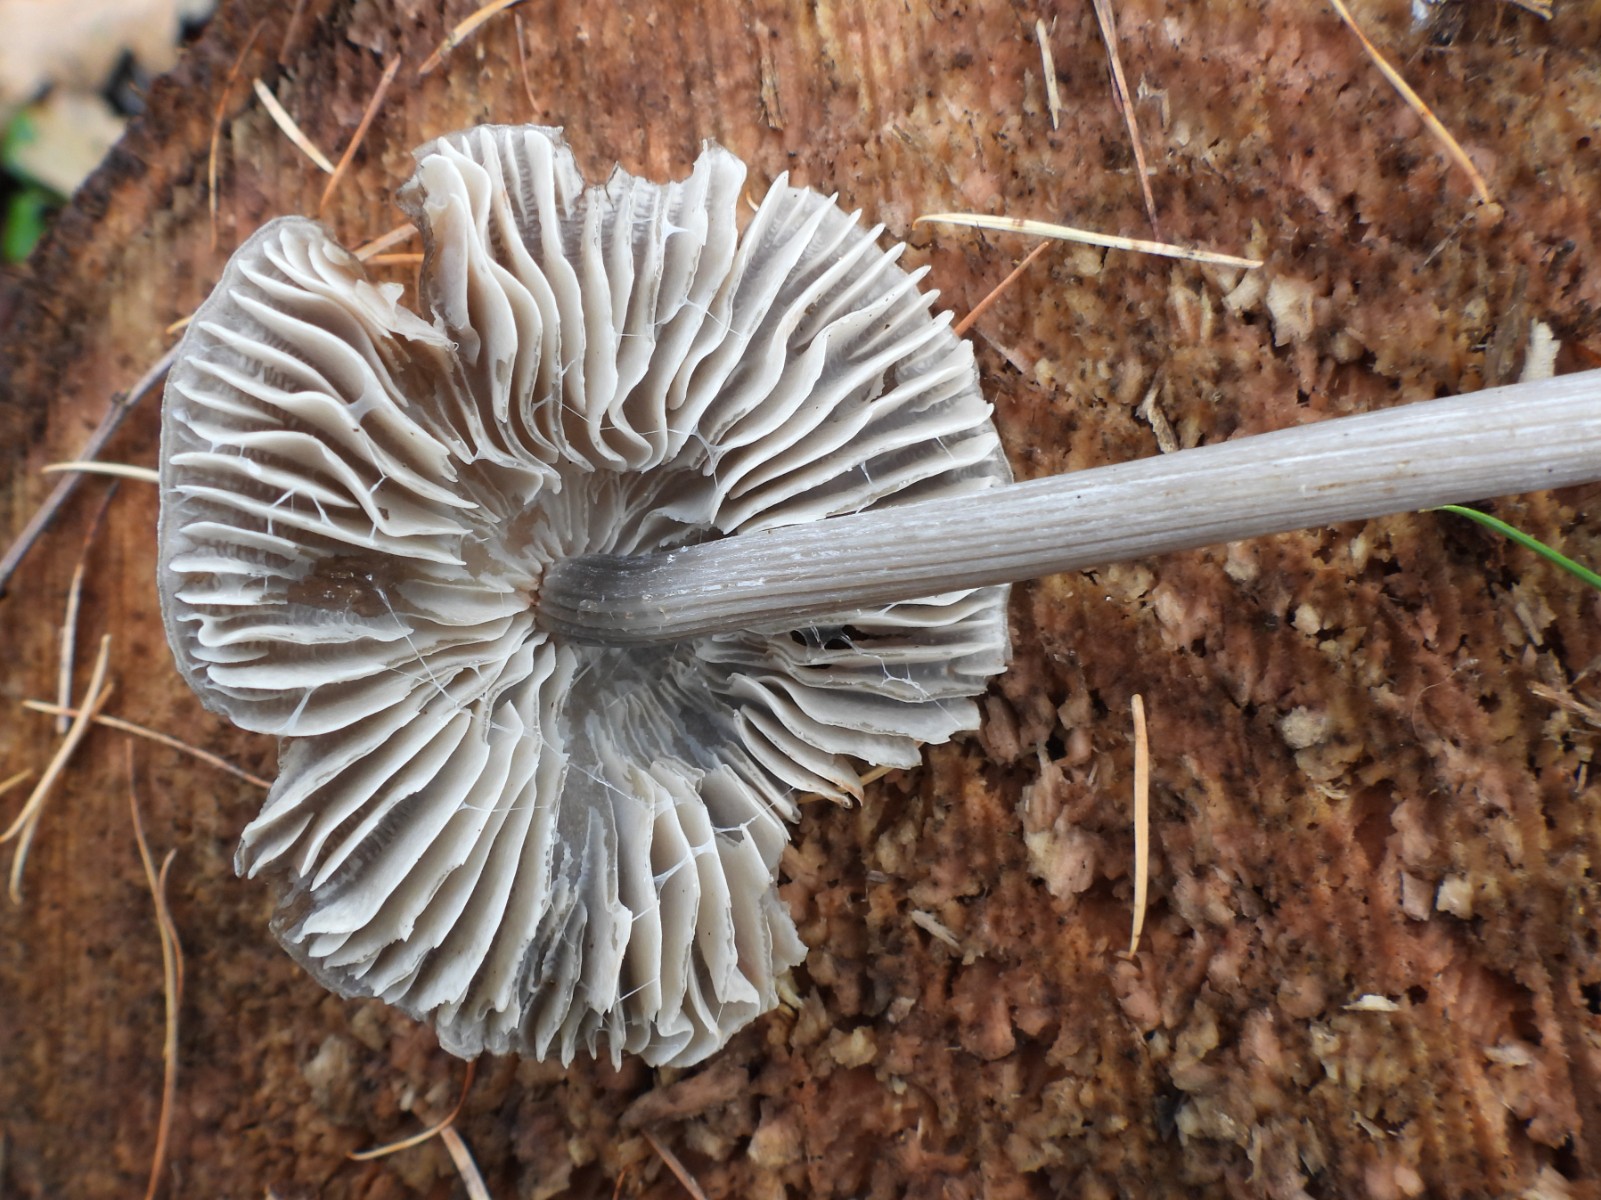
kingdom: Fungi
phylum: Basidiomycota
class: Agaricomycetes
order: Agaricales
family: Mycenaceae
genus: Mycena
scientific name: Mycena polygramma
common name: mangestribet huesvamp
